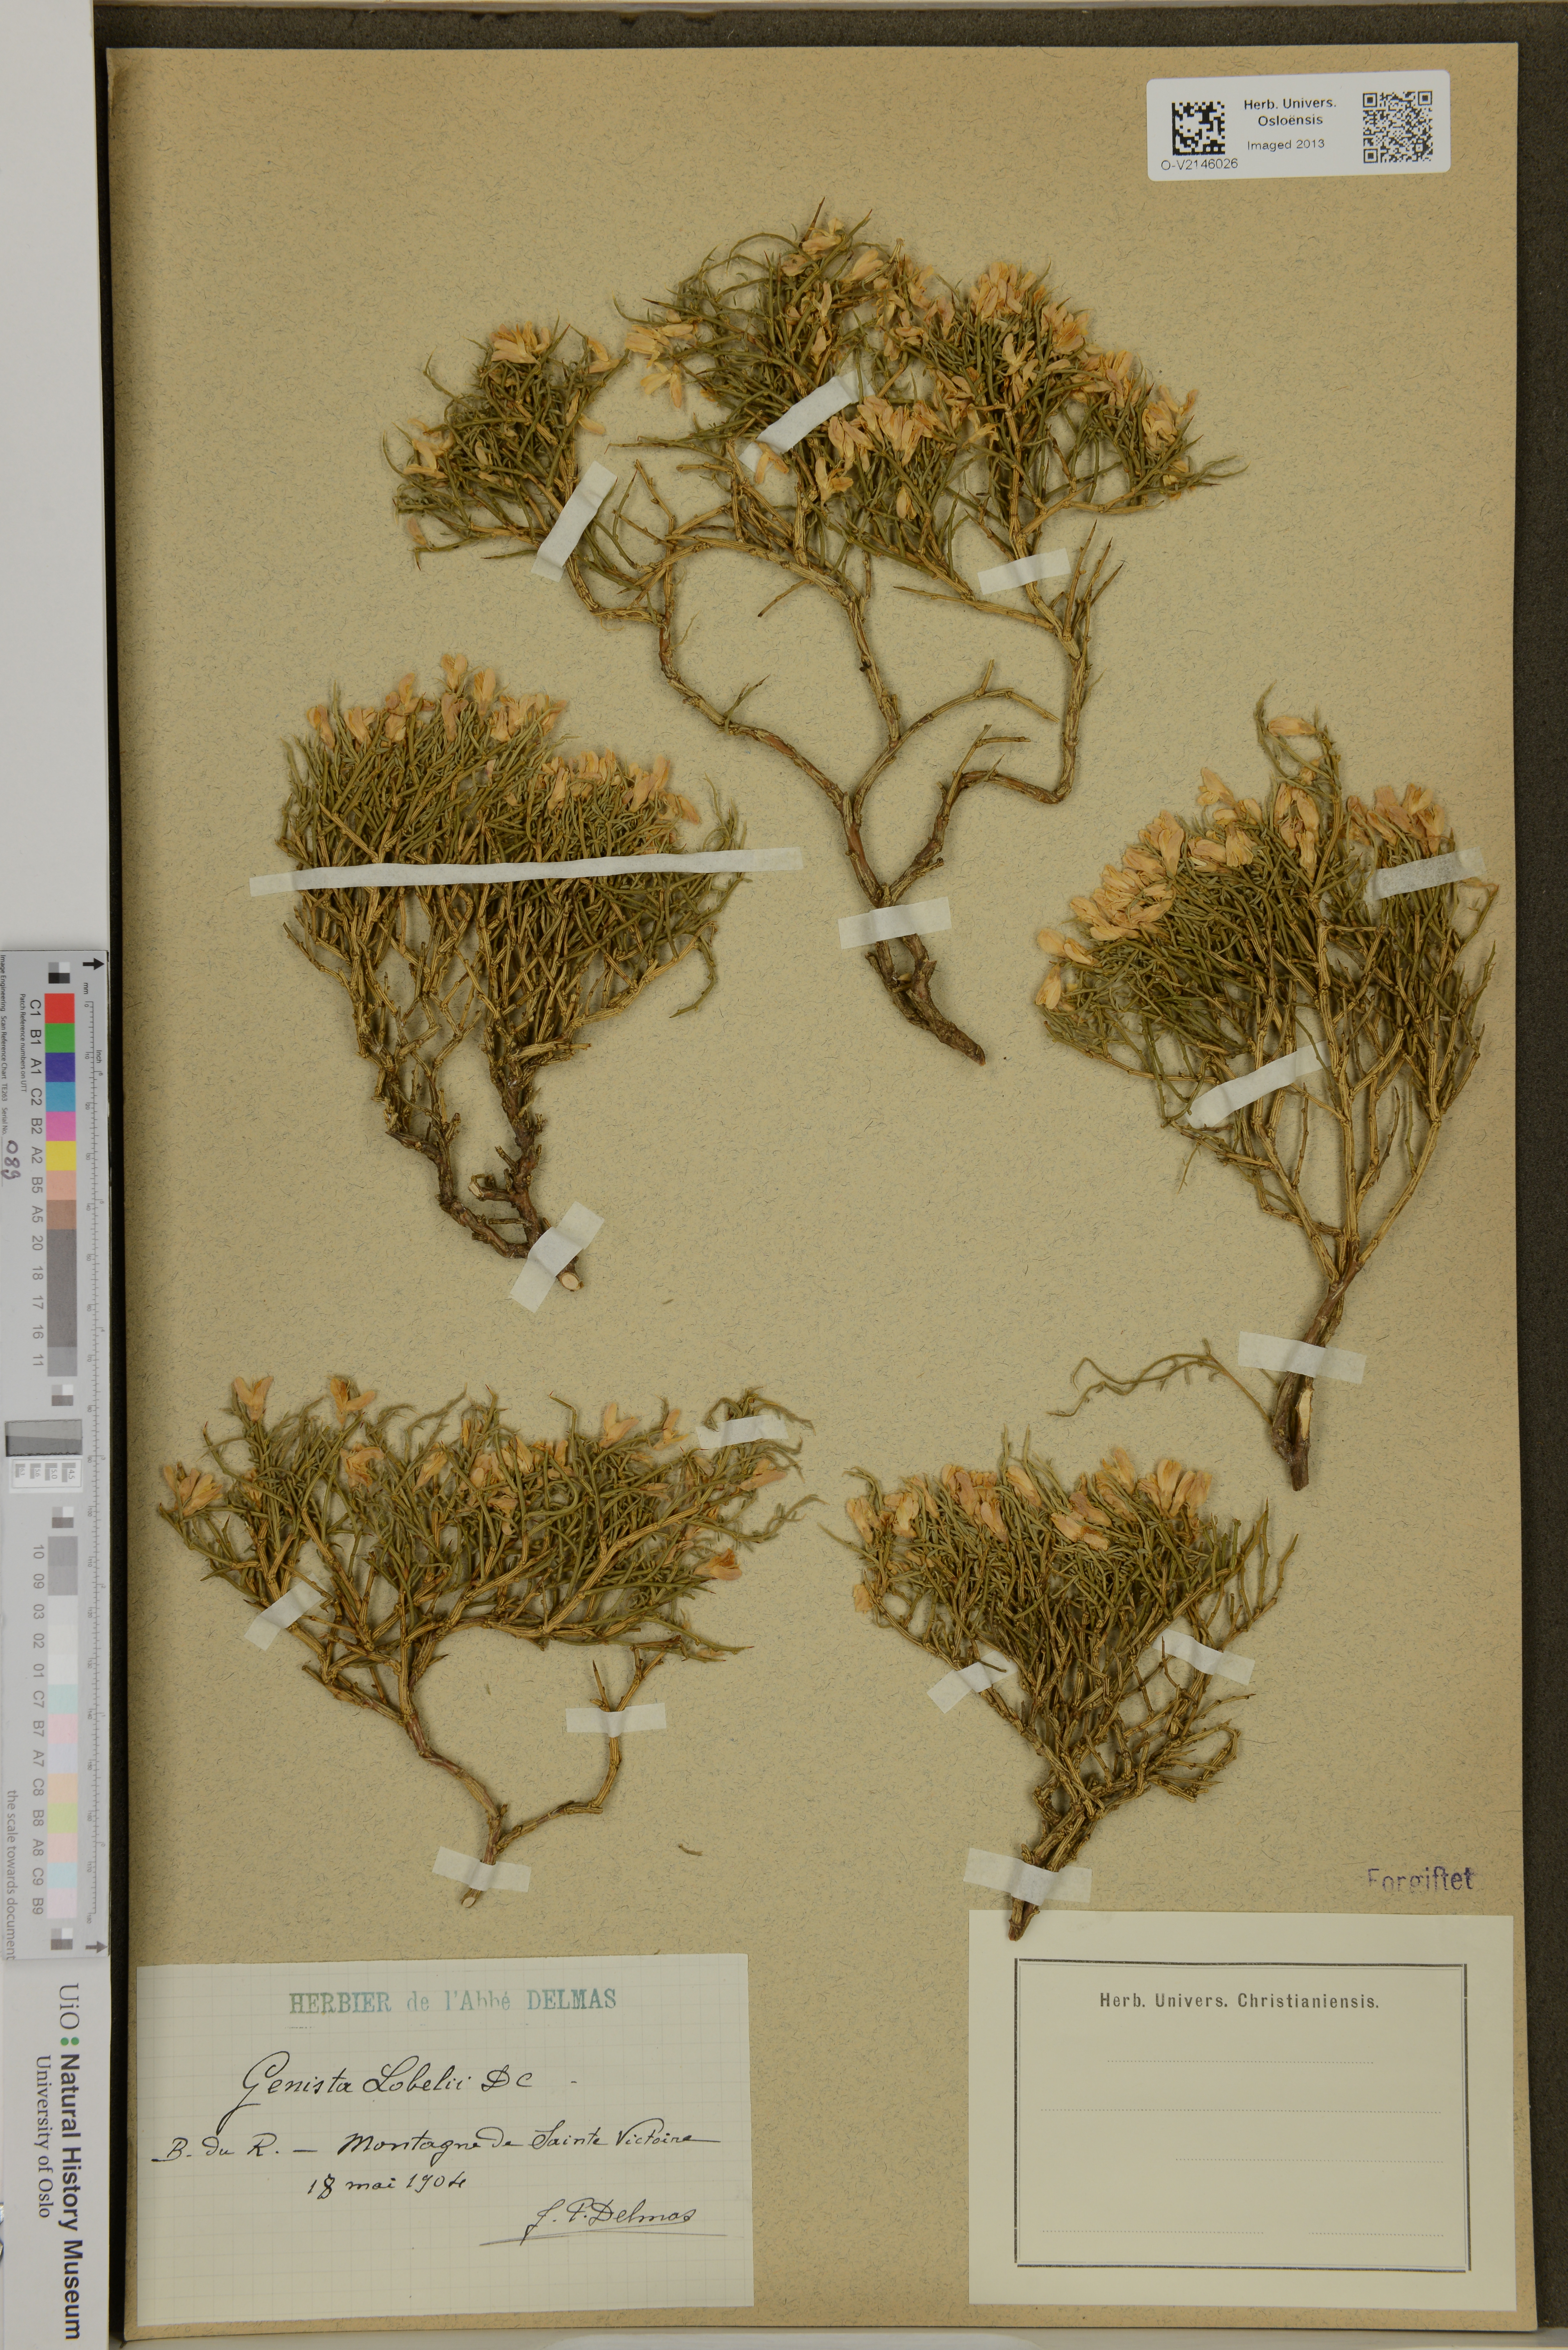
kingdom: Plantae
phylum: Tracheophyta
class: Magnoliopsida
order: Fabales
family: Fabaceae
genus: Genista
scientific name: Genista lobelii
